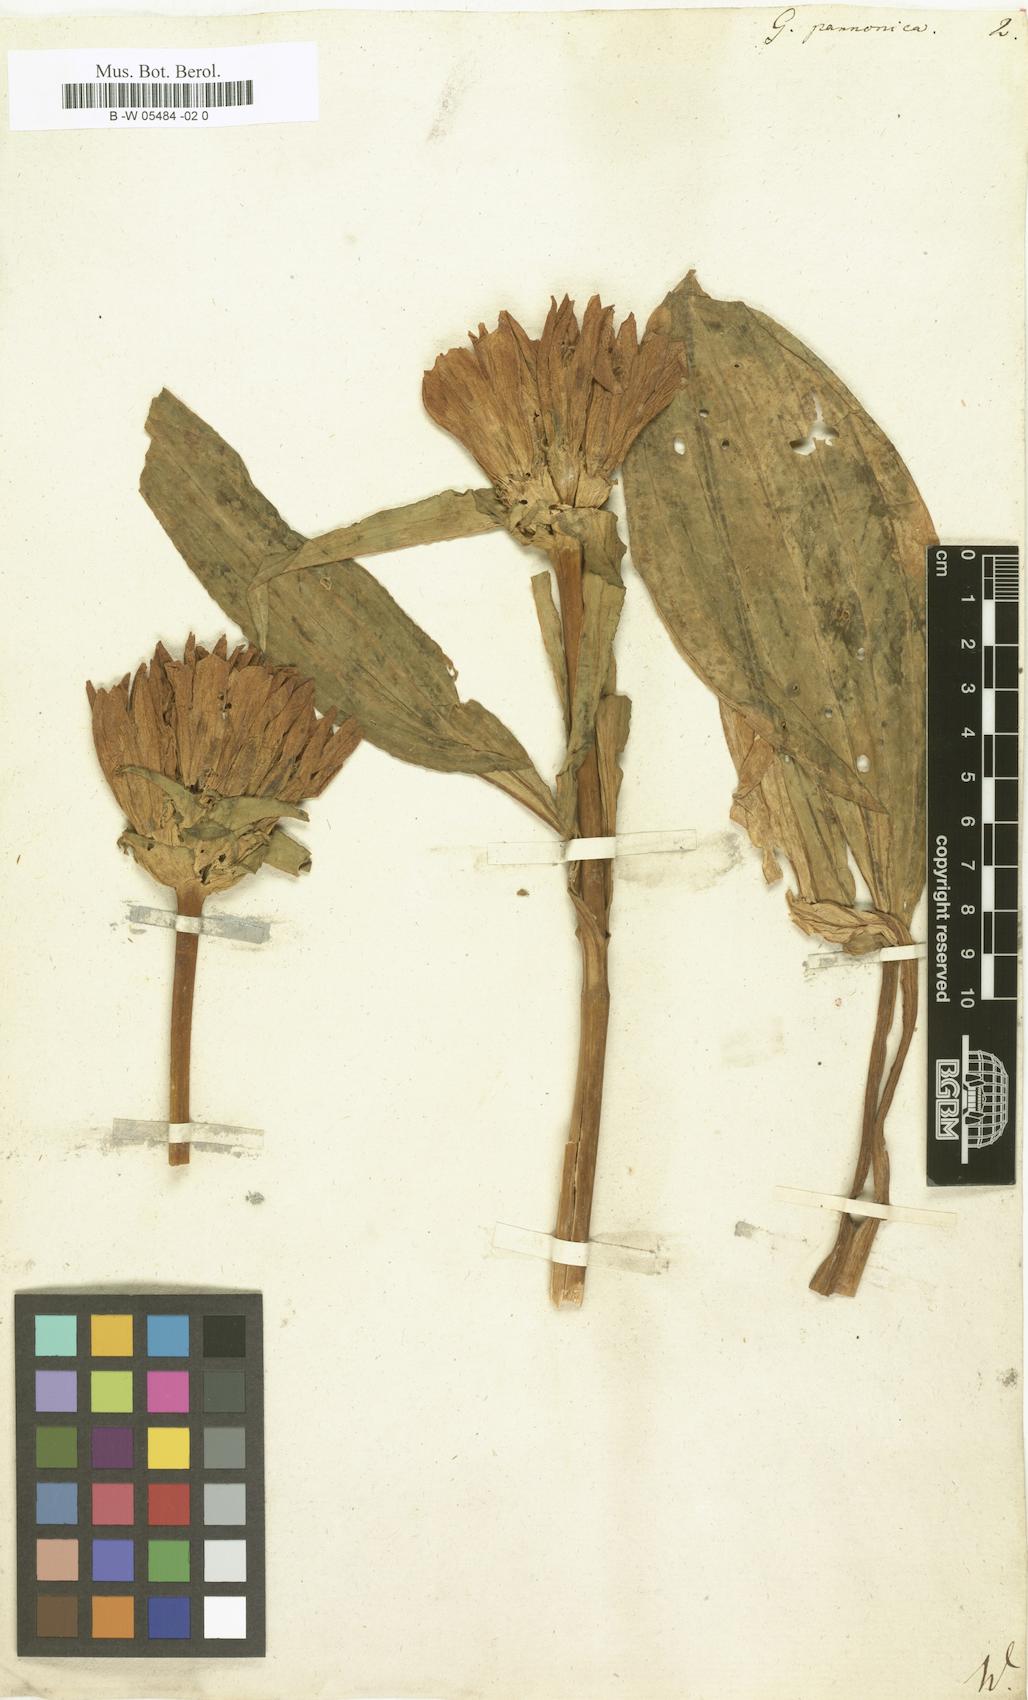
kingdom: Plantae
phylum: Tracheophyta
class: Magnoliopsida
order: Gentianales
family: Gentianaceae
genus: Gentiana
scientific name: Gentiana pannonica
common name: Hungarian gentian
